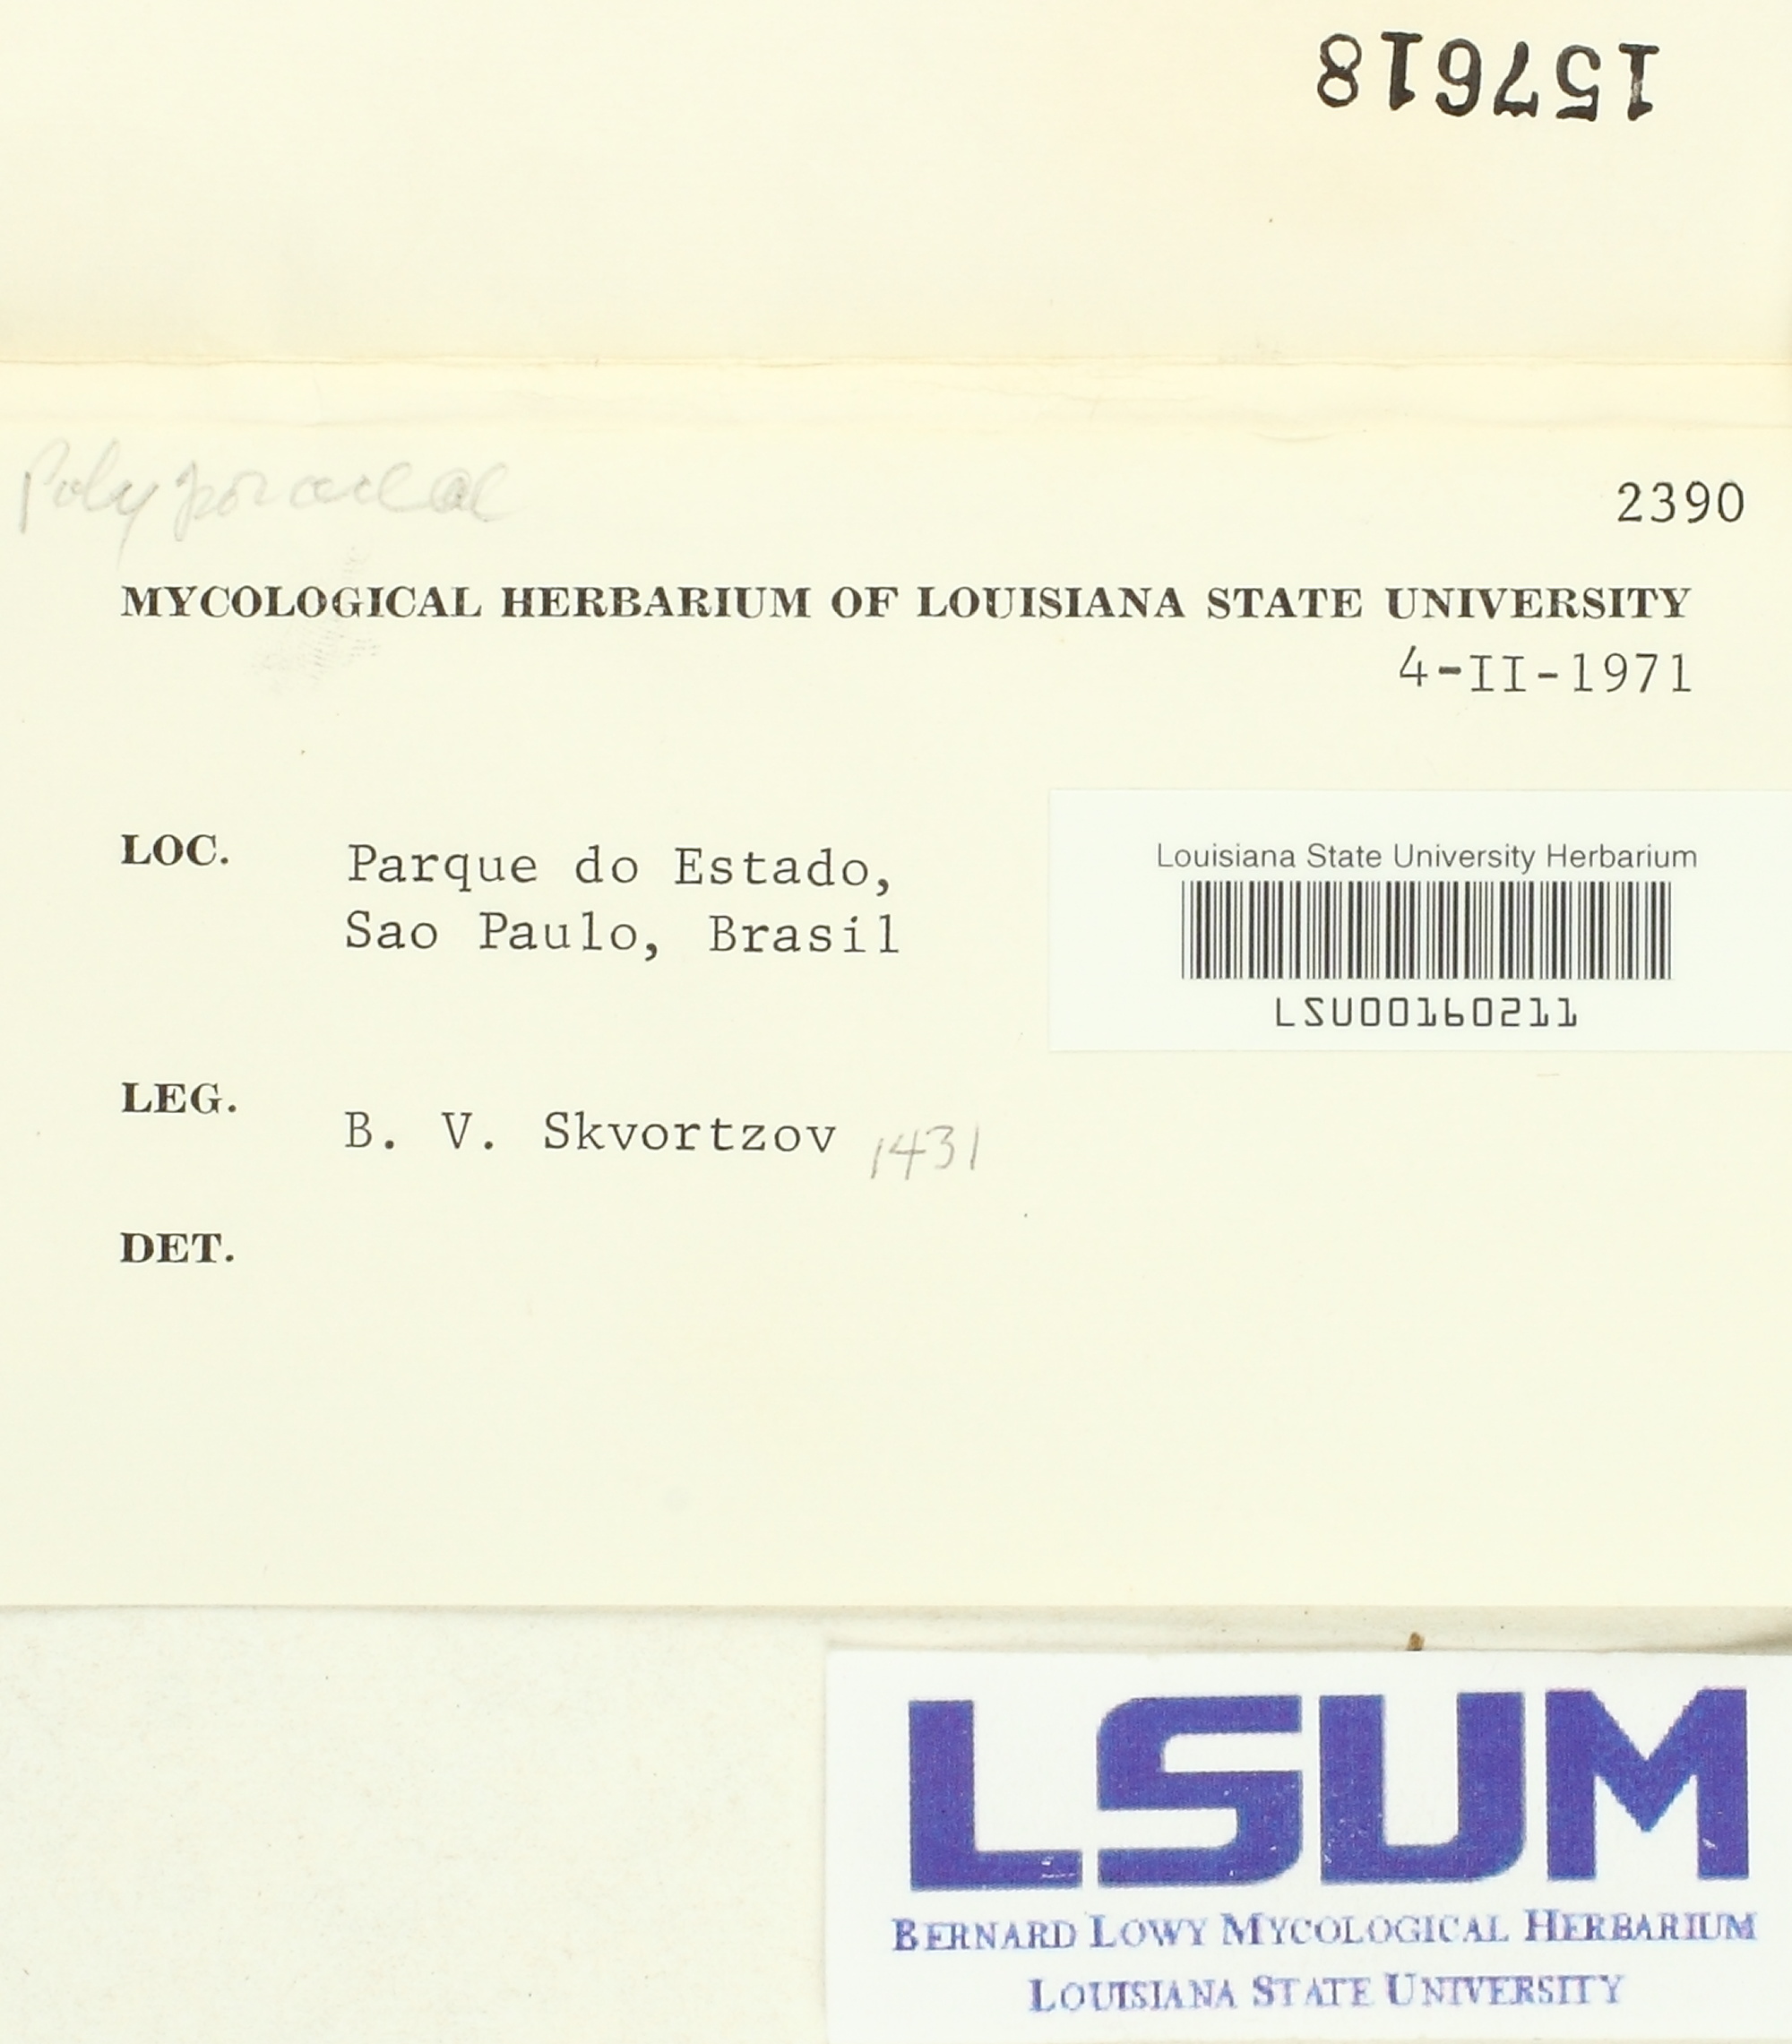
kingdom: Fungi
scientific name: Fungi
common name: Fungi
